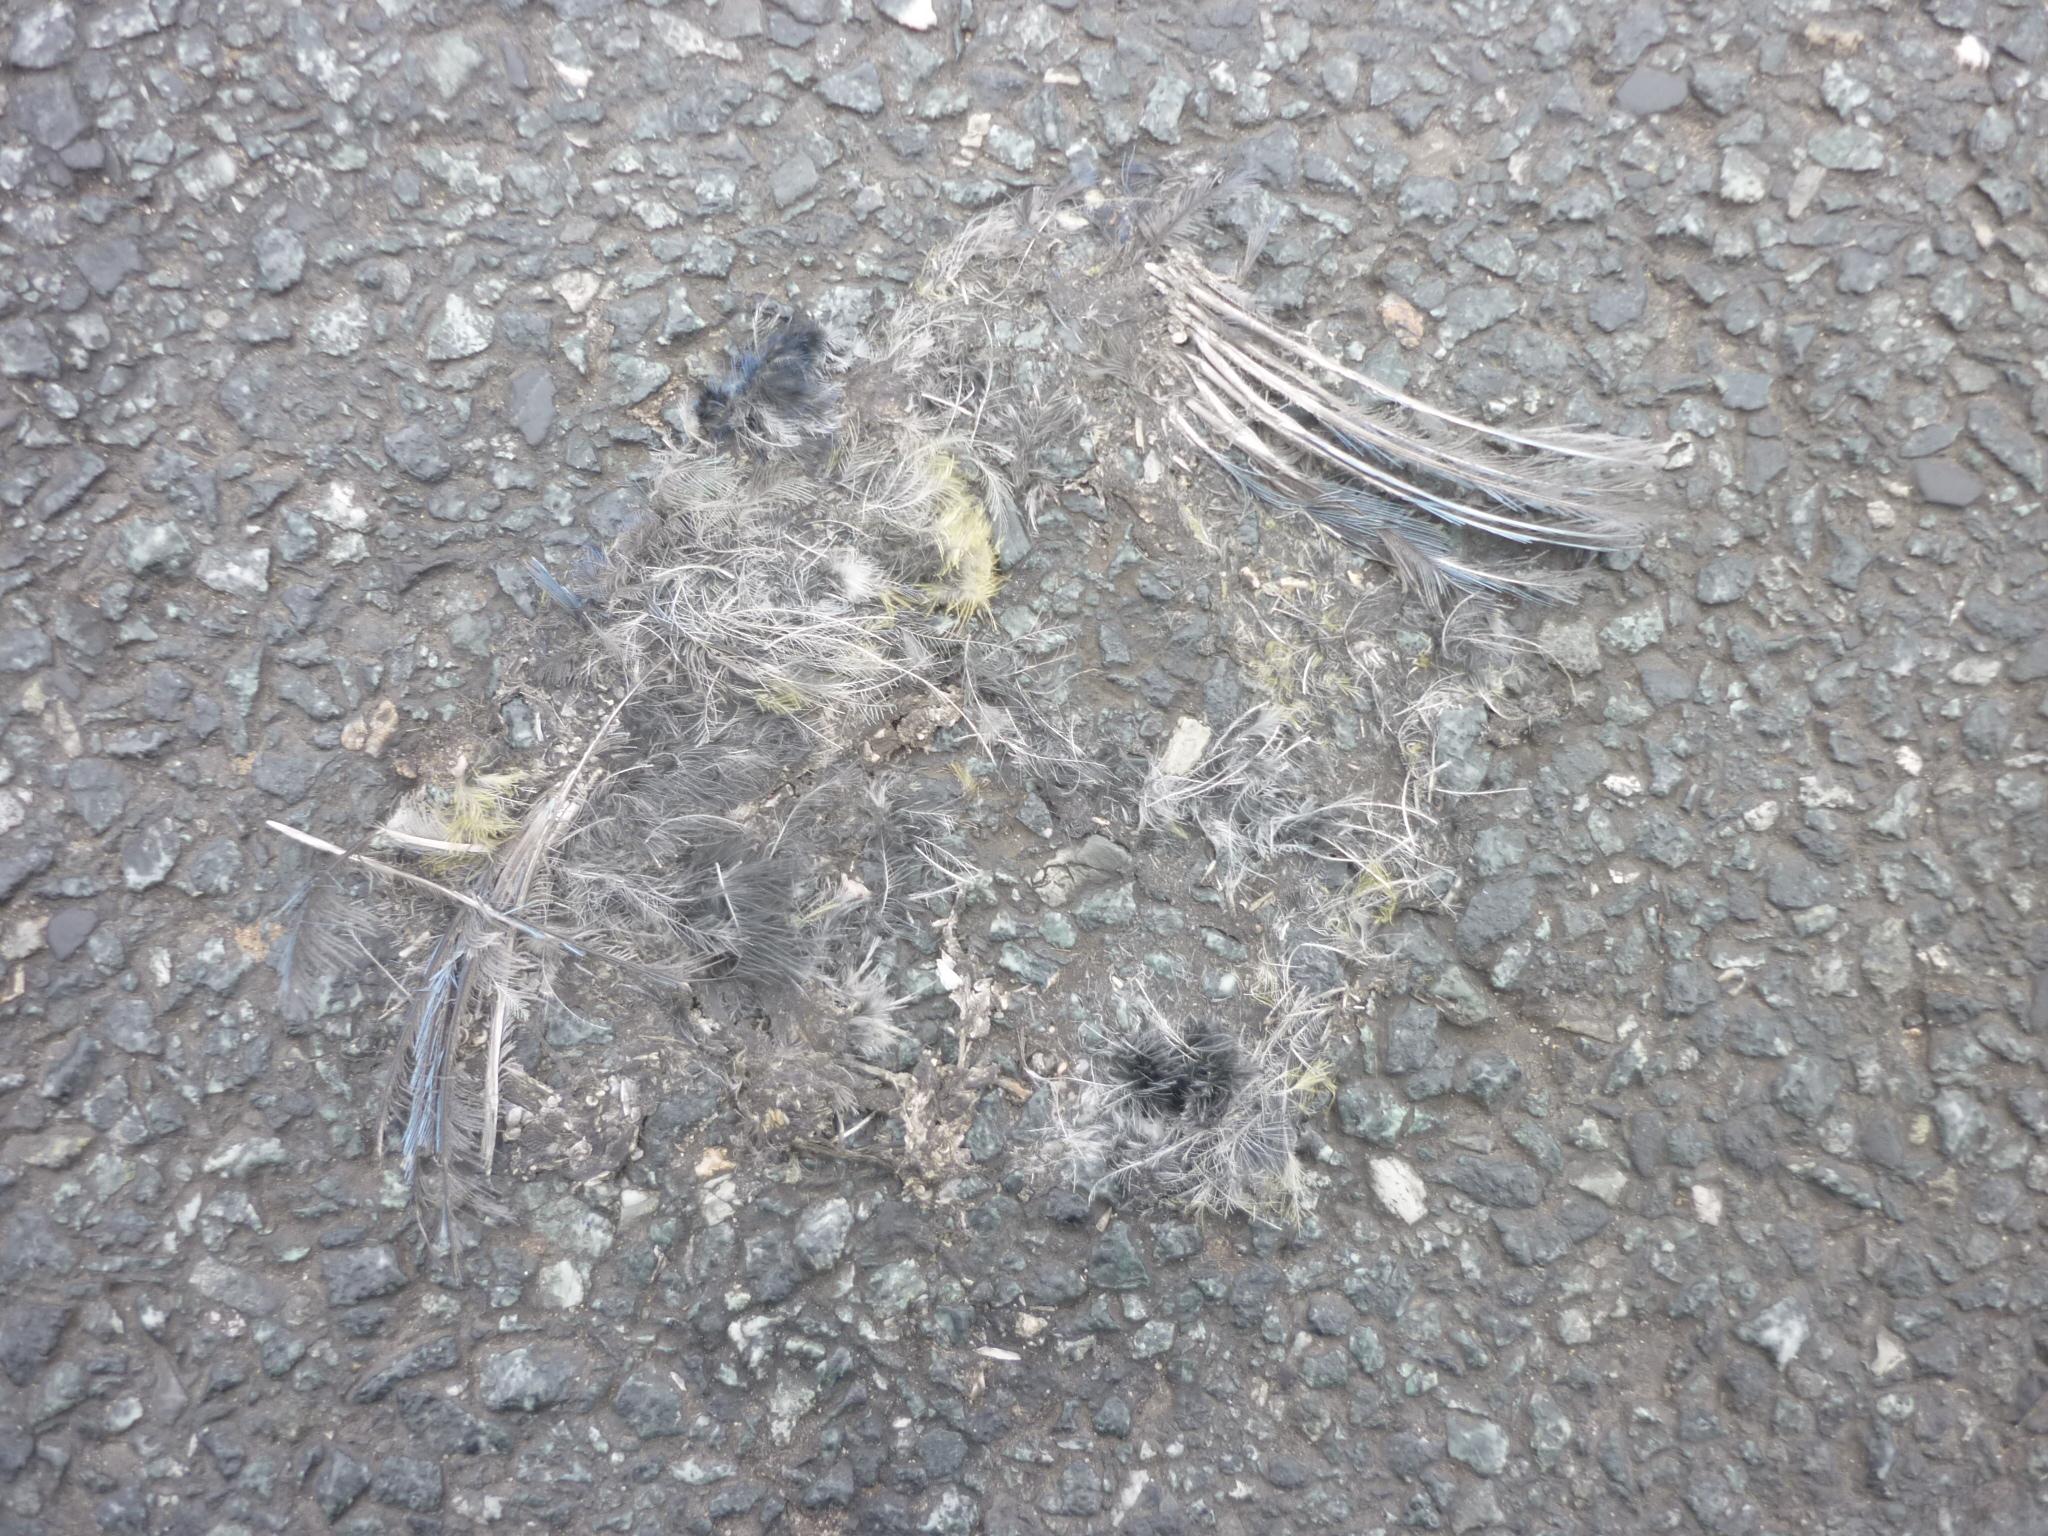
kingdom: Animalia
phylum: Chordata
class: Aves
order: Passeriformes
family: Paridae
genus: Cyanistes
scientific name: Cyanistes caeruleus
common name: Eurasian blue tit
